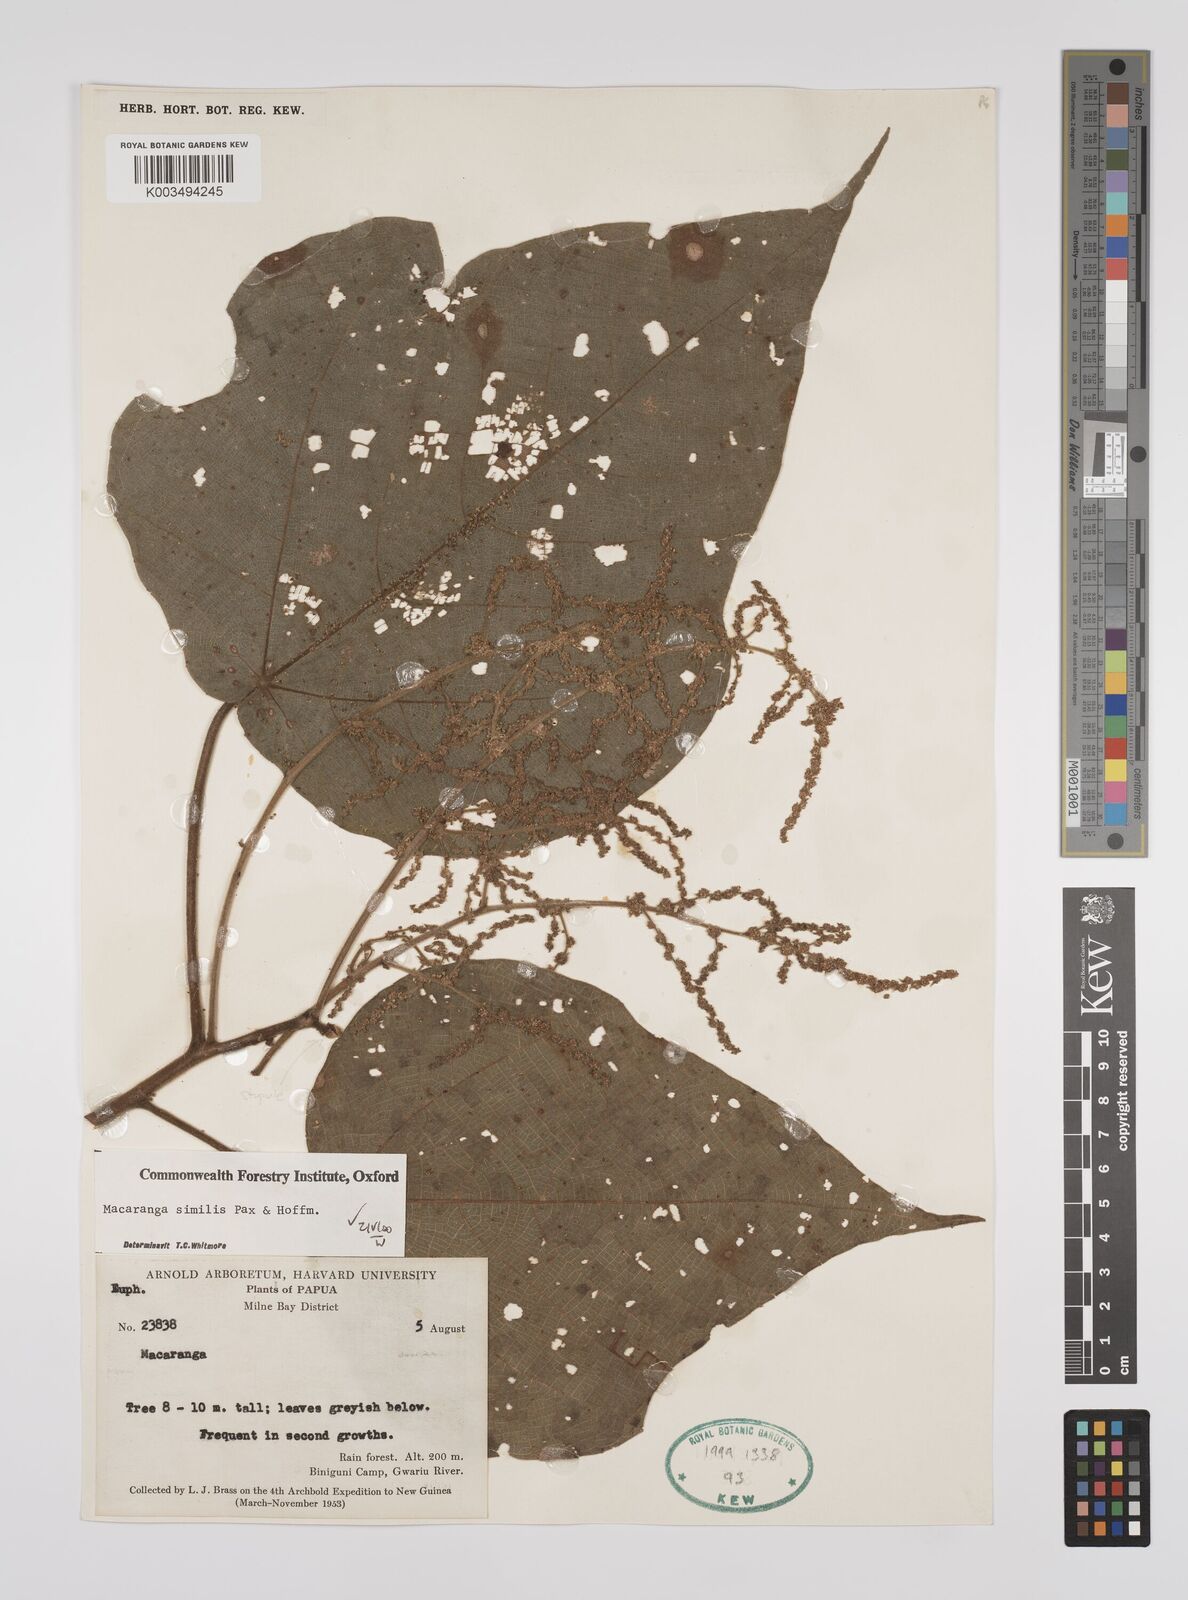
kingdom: Plantae
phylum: Tracheophyta
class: Magnoliopsida
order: Malpighiales
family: Euphorbiaceae
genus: Macaranga
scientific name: Macaranga similis
